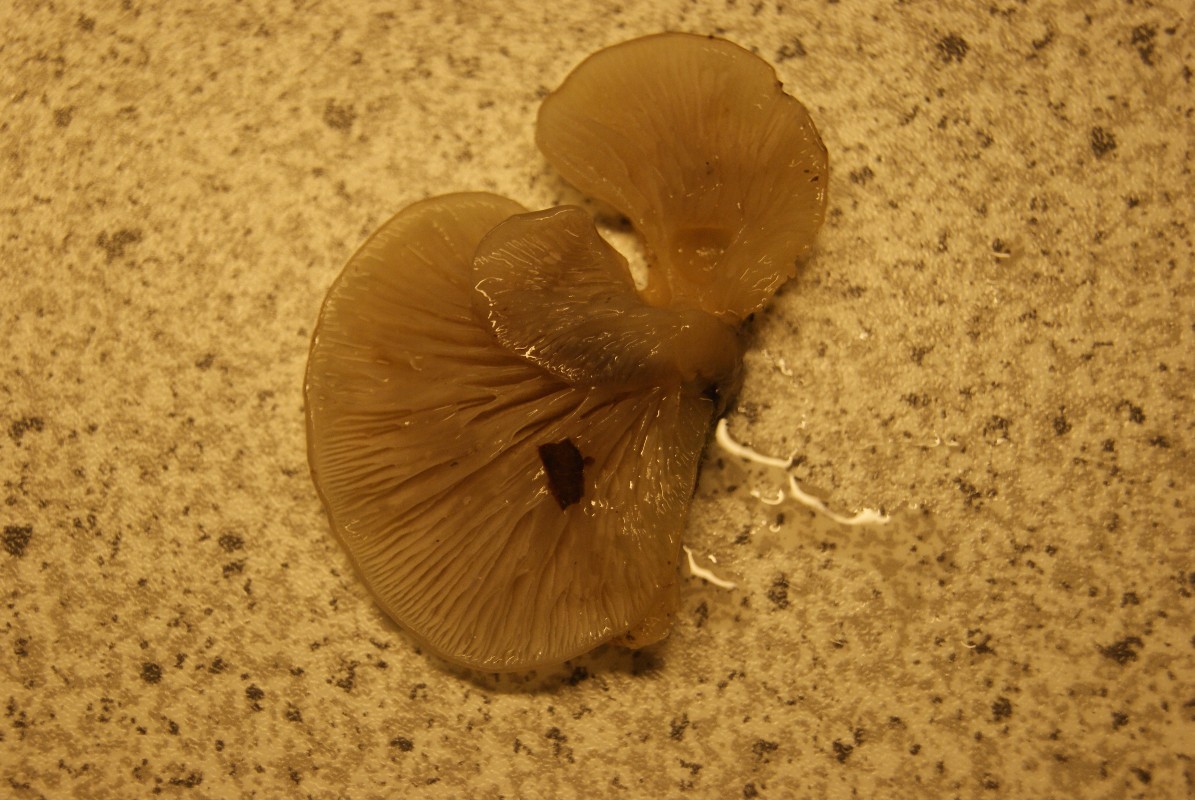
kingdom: Fungi
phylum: Basidiomycota
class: Agaricomycetes
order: Agaricales
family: Crepidotaceae
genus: Crepidotus
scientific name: Crepidotus mollis
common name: blød muslingesvamp
